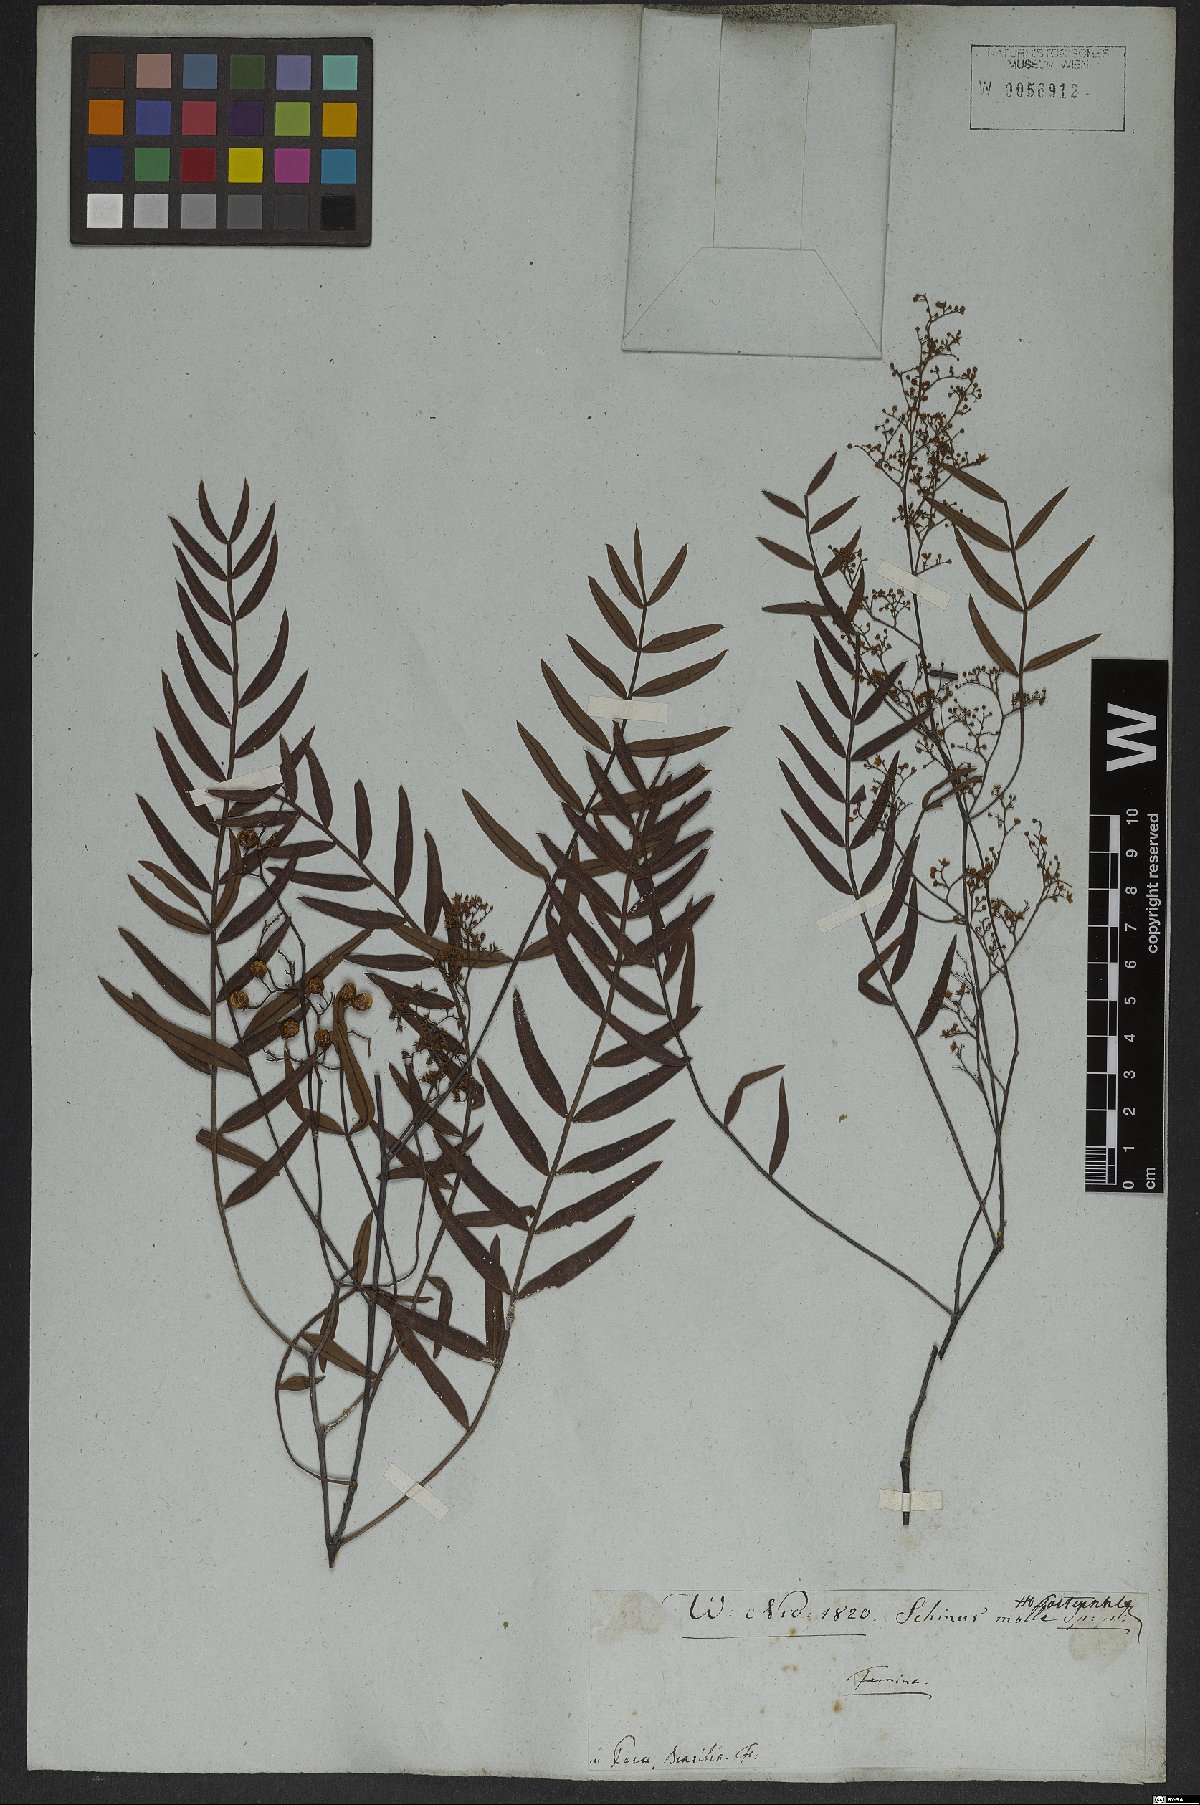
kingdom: Plantae
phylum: Tracheophyta
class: Magnoliopsida
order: Sapindales
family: Anacardiaceae
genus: Schinus
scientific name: Schinus areira
